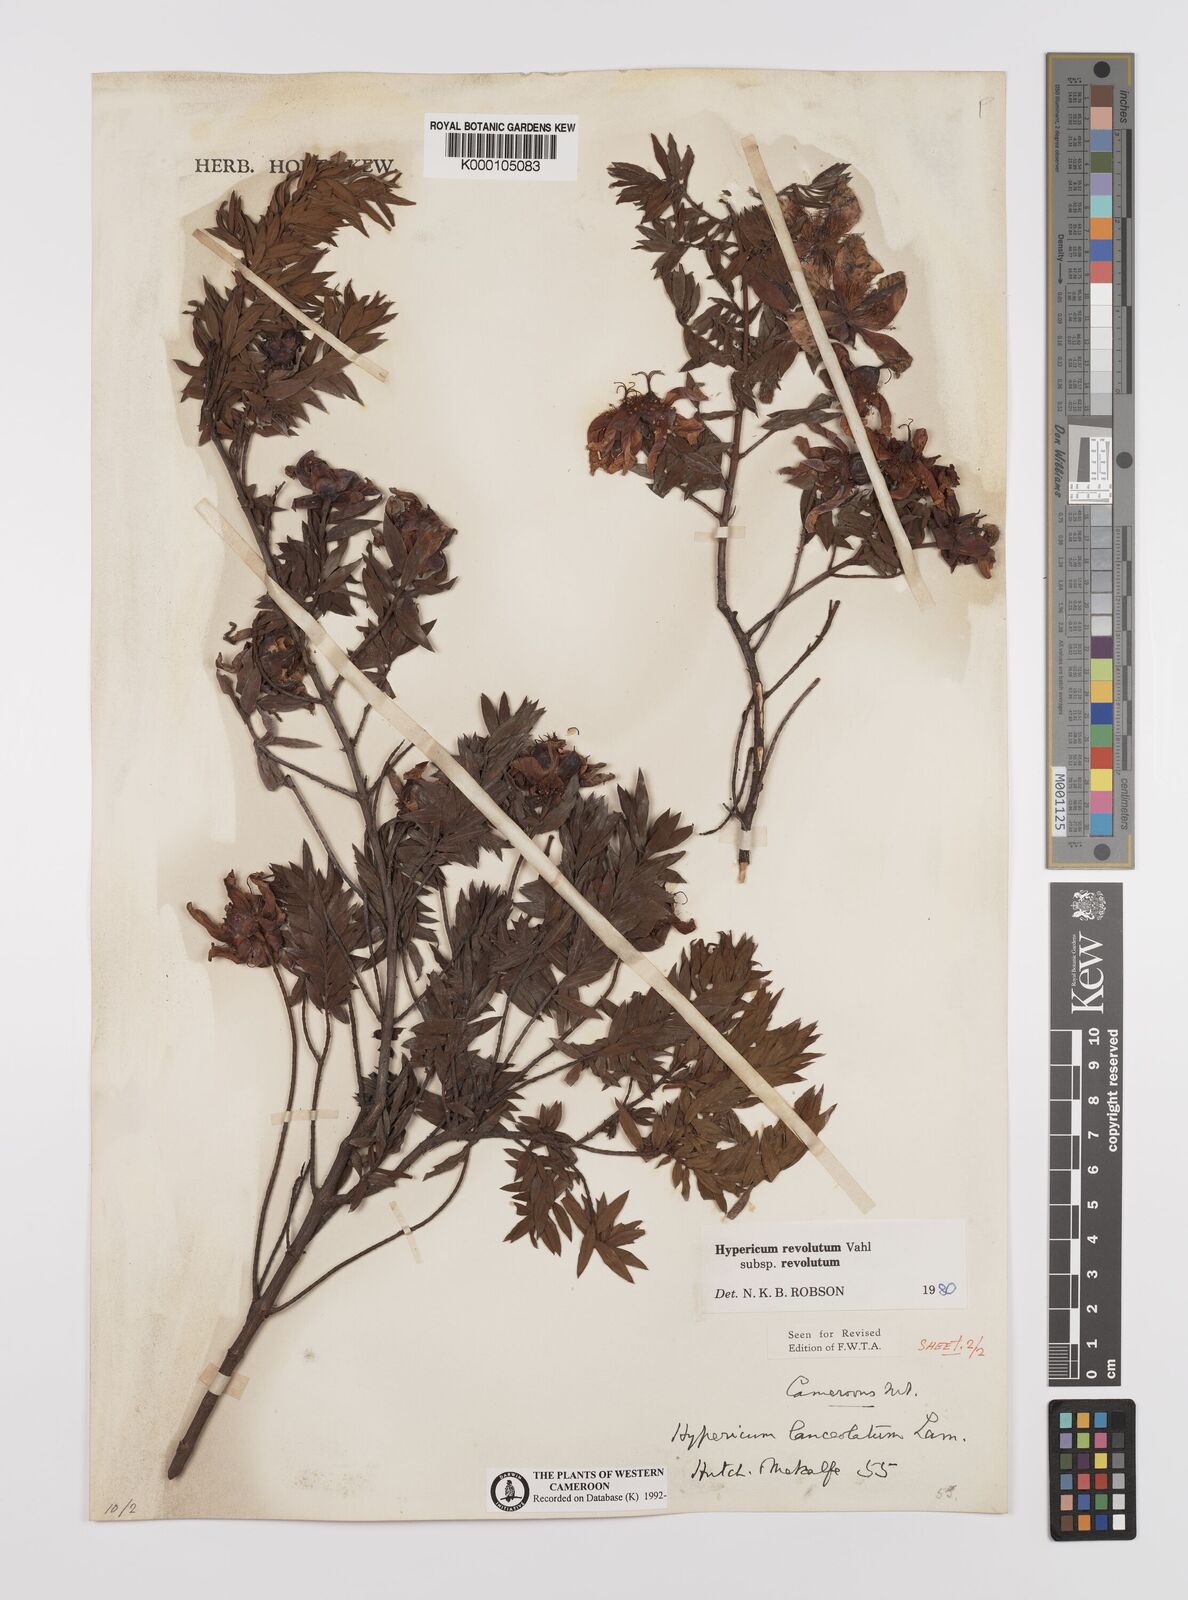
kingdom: Plantae
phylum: Tracheophyta
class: Magnoliopsida
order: Malpighiales
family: Hypericaceae
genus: Hypericum
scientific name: Hypericum revolutum
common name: Curry bush
